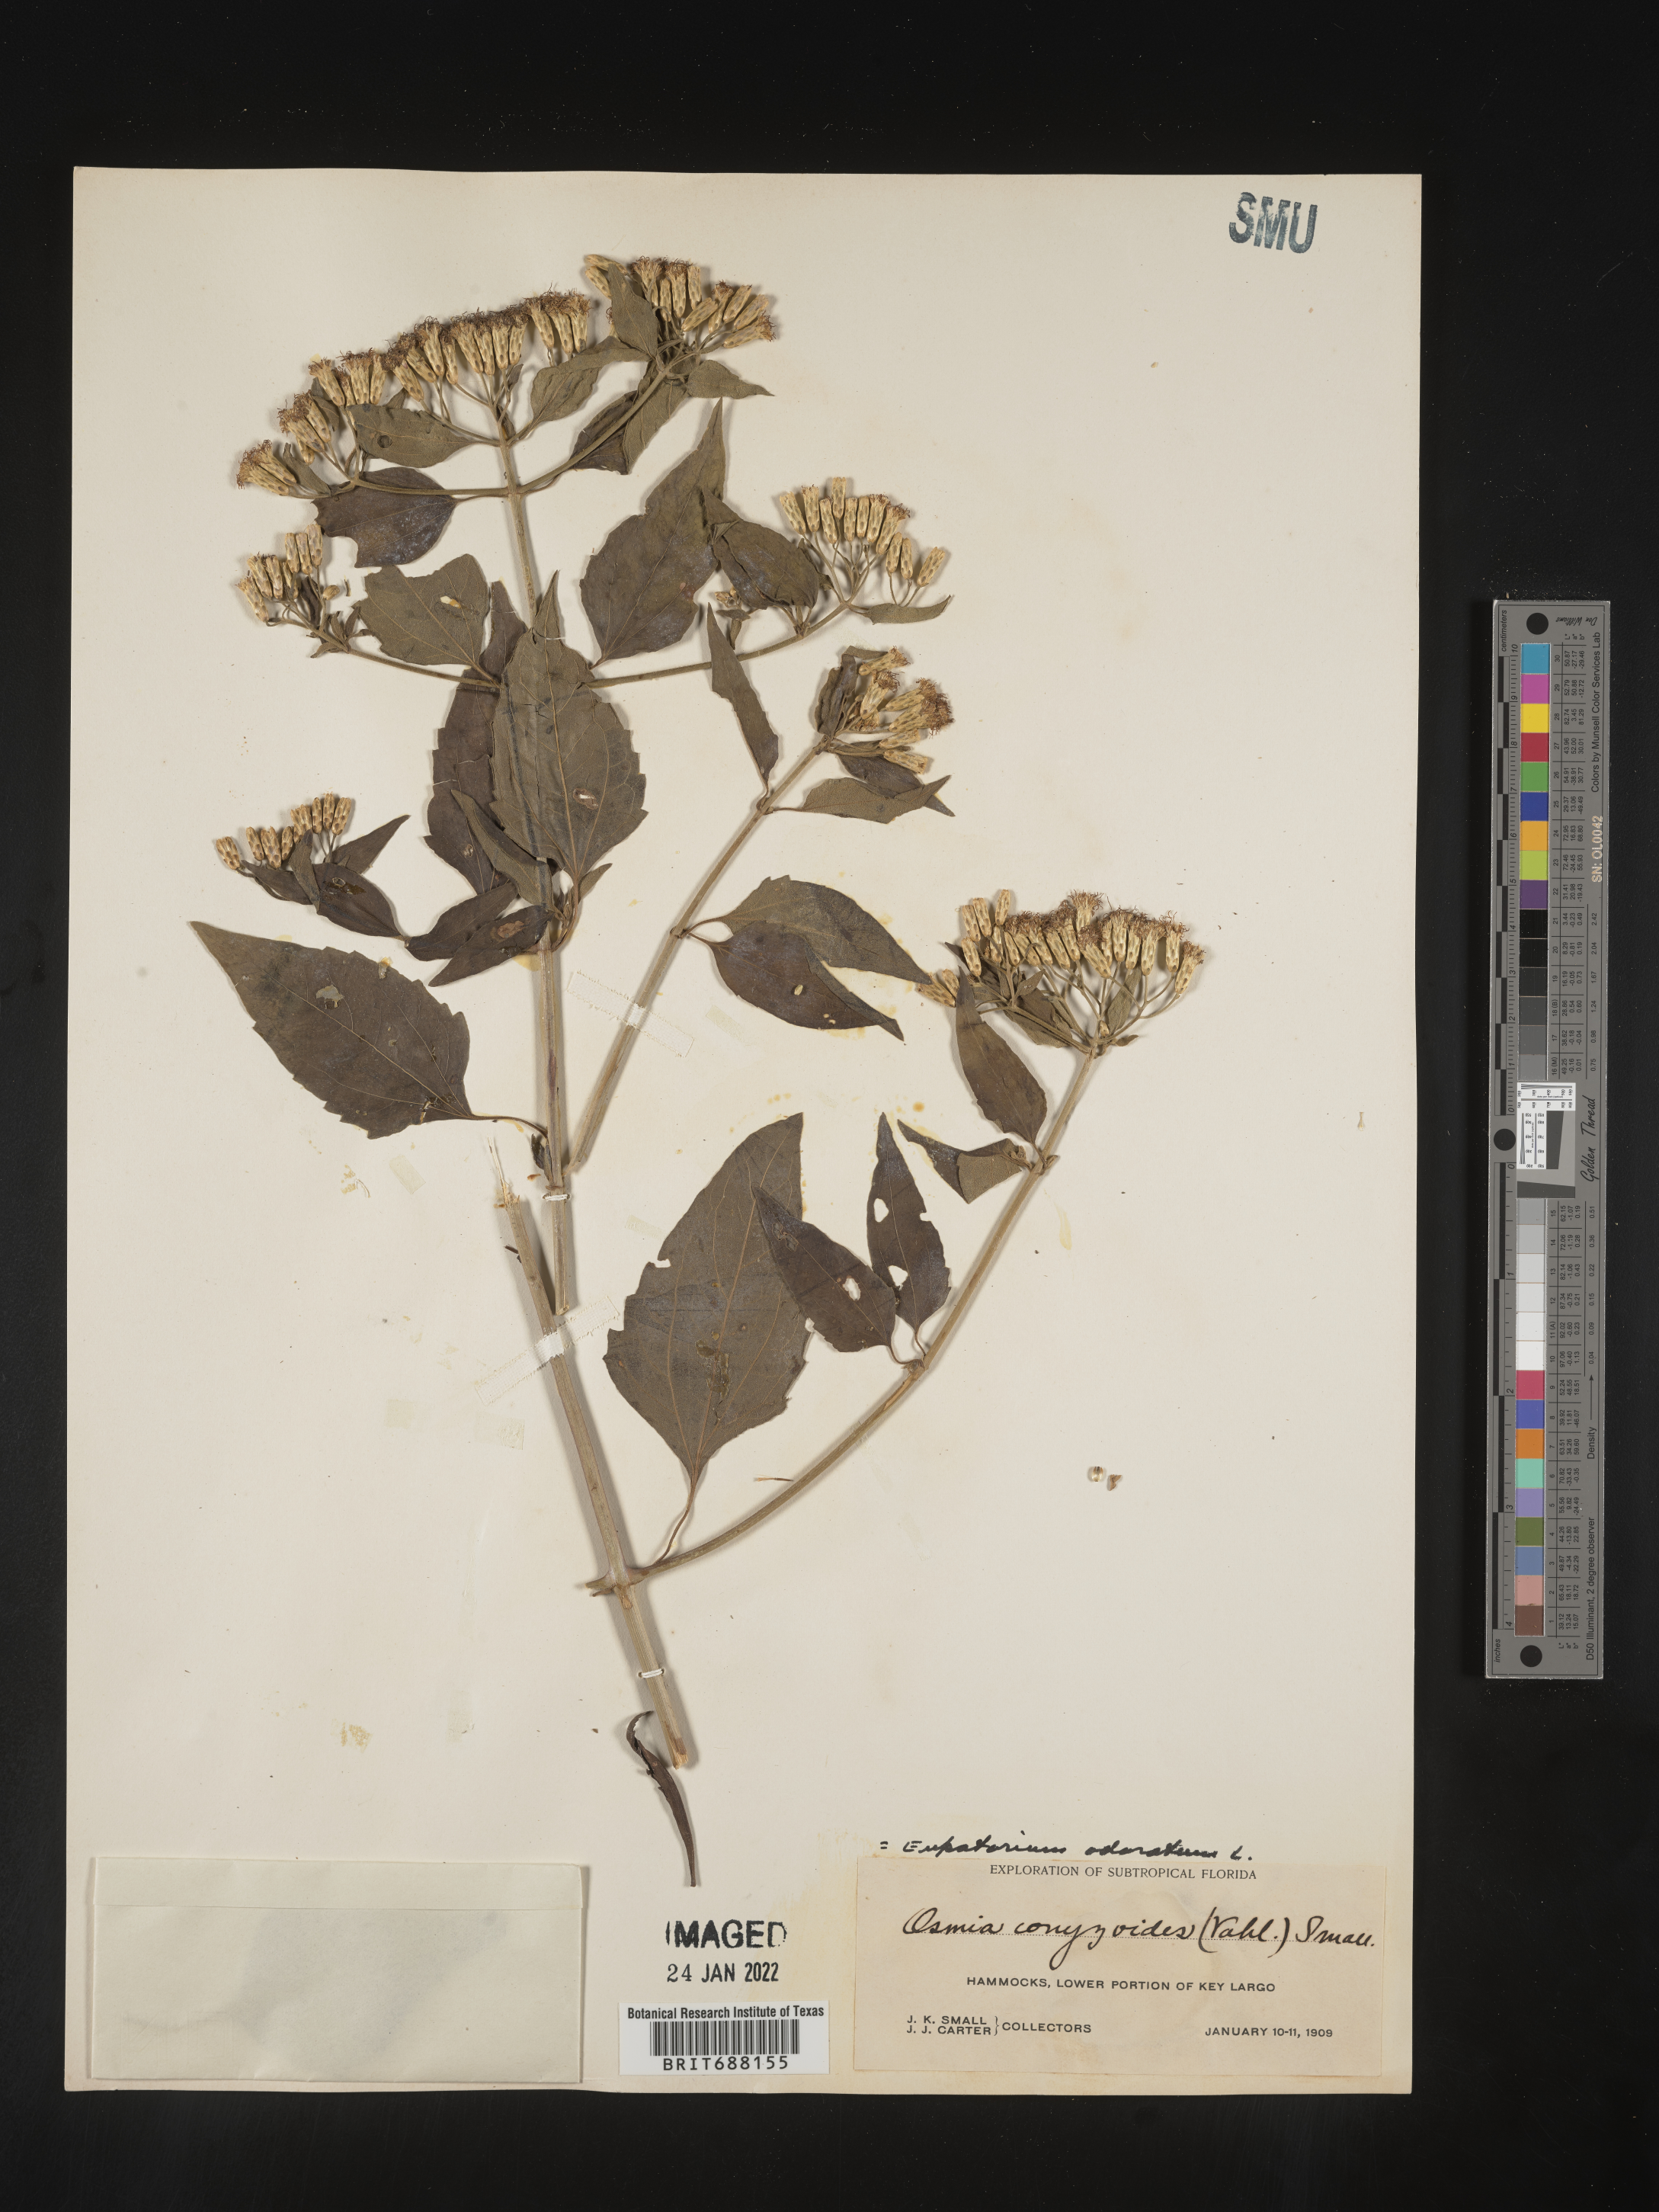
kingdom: Plantae
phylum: Tracheophyta
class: Magnoliopsida
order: Asterales
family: Asteraceae
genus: Chromolaena
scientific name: Chromolaena odorata
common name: Siamweed
